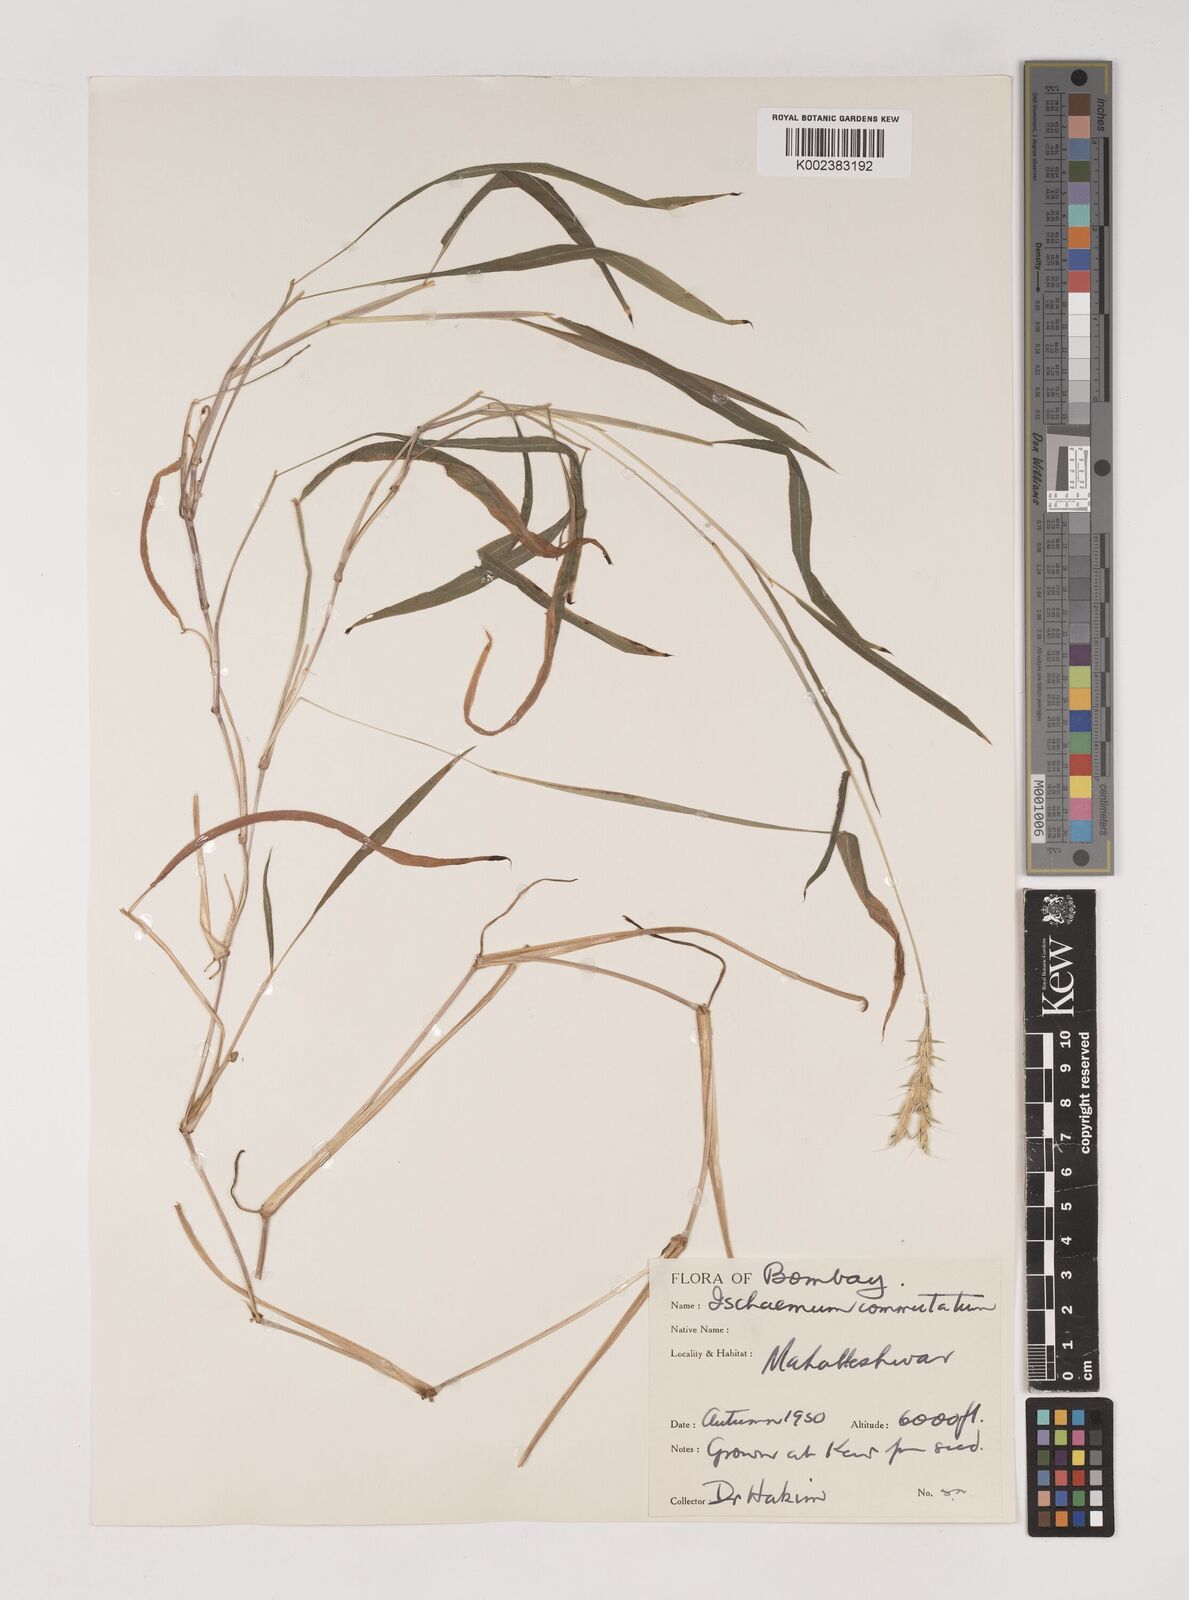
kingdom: Plantae
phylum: Tracheophyta
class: Liliopsida
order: Poales
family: Poaceae
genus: Ischaemum
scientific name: Ischaemum commutatum
